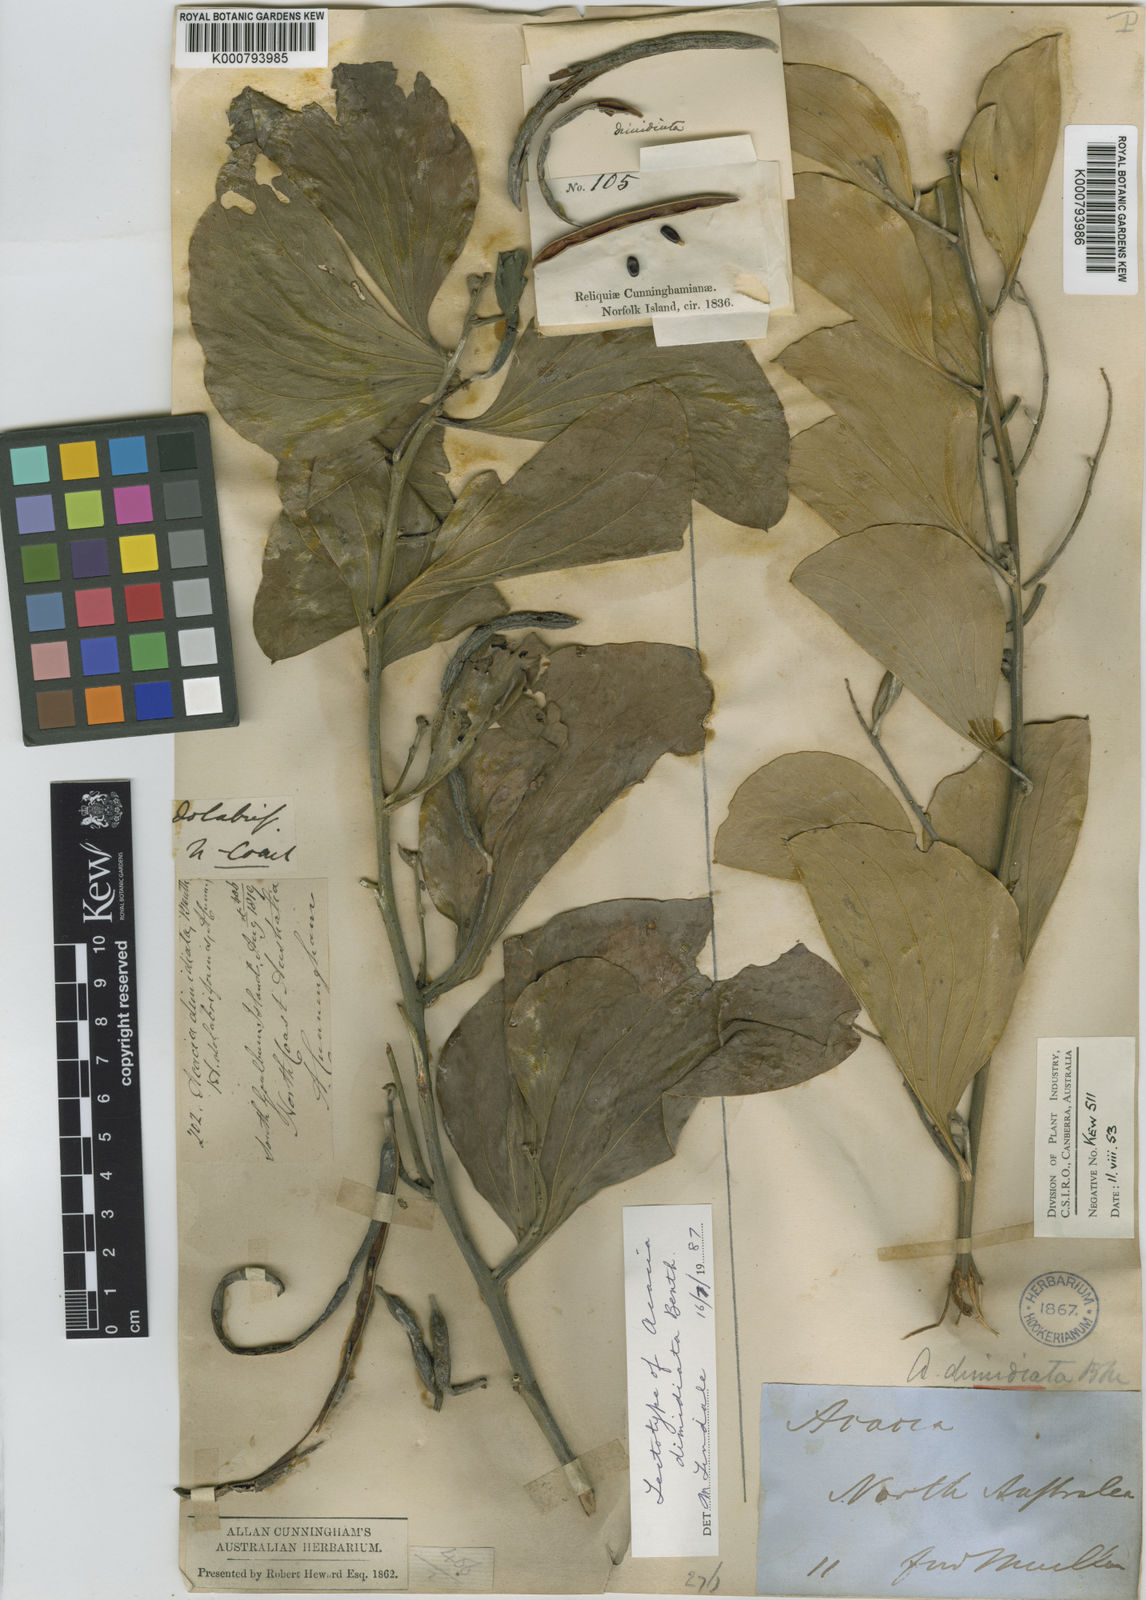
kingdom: Plantae
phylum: Tracheophyta
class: Magnoliopsida
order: Fabales
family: Fabaceae
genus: Acacia
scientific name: Acacia dimidiata
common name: Swamp wattle
